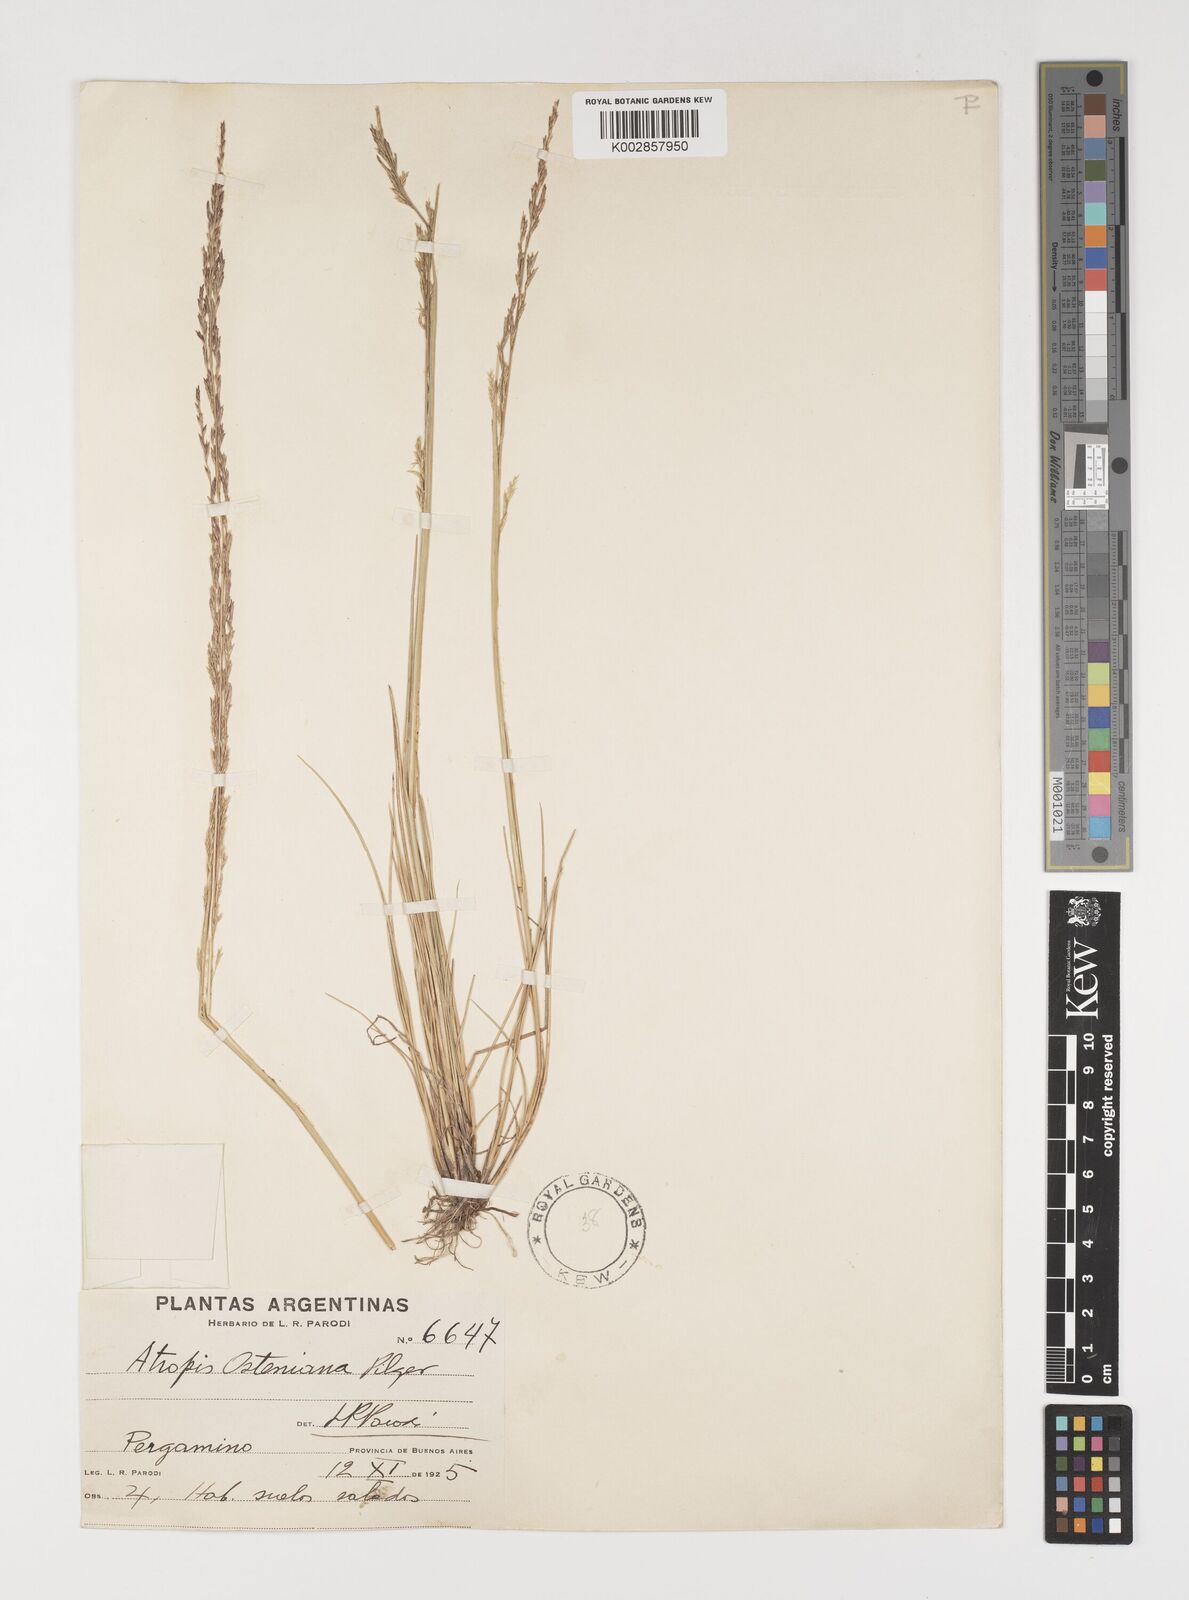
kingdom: Plantae
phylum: Tracheophyta
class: Liliopsida
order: Poales
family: Poaceae
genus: Puccinellia
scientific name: Puccinellia glaucescens
